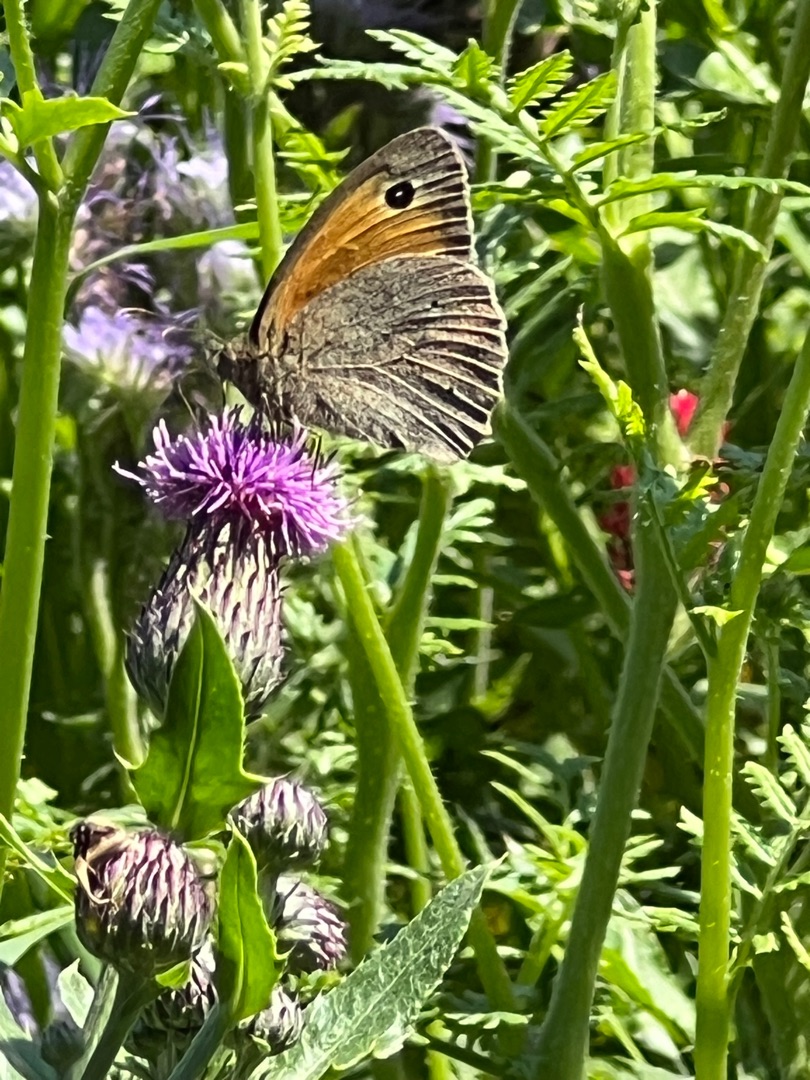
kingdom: Animalia
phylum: Arthropoda
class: Insecta
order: Lepidoptera
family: Nymphalidae
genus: Maniola
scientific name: Maniola jurtina
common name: Græsrandøje
